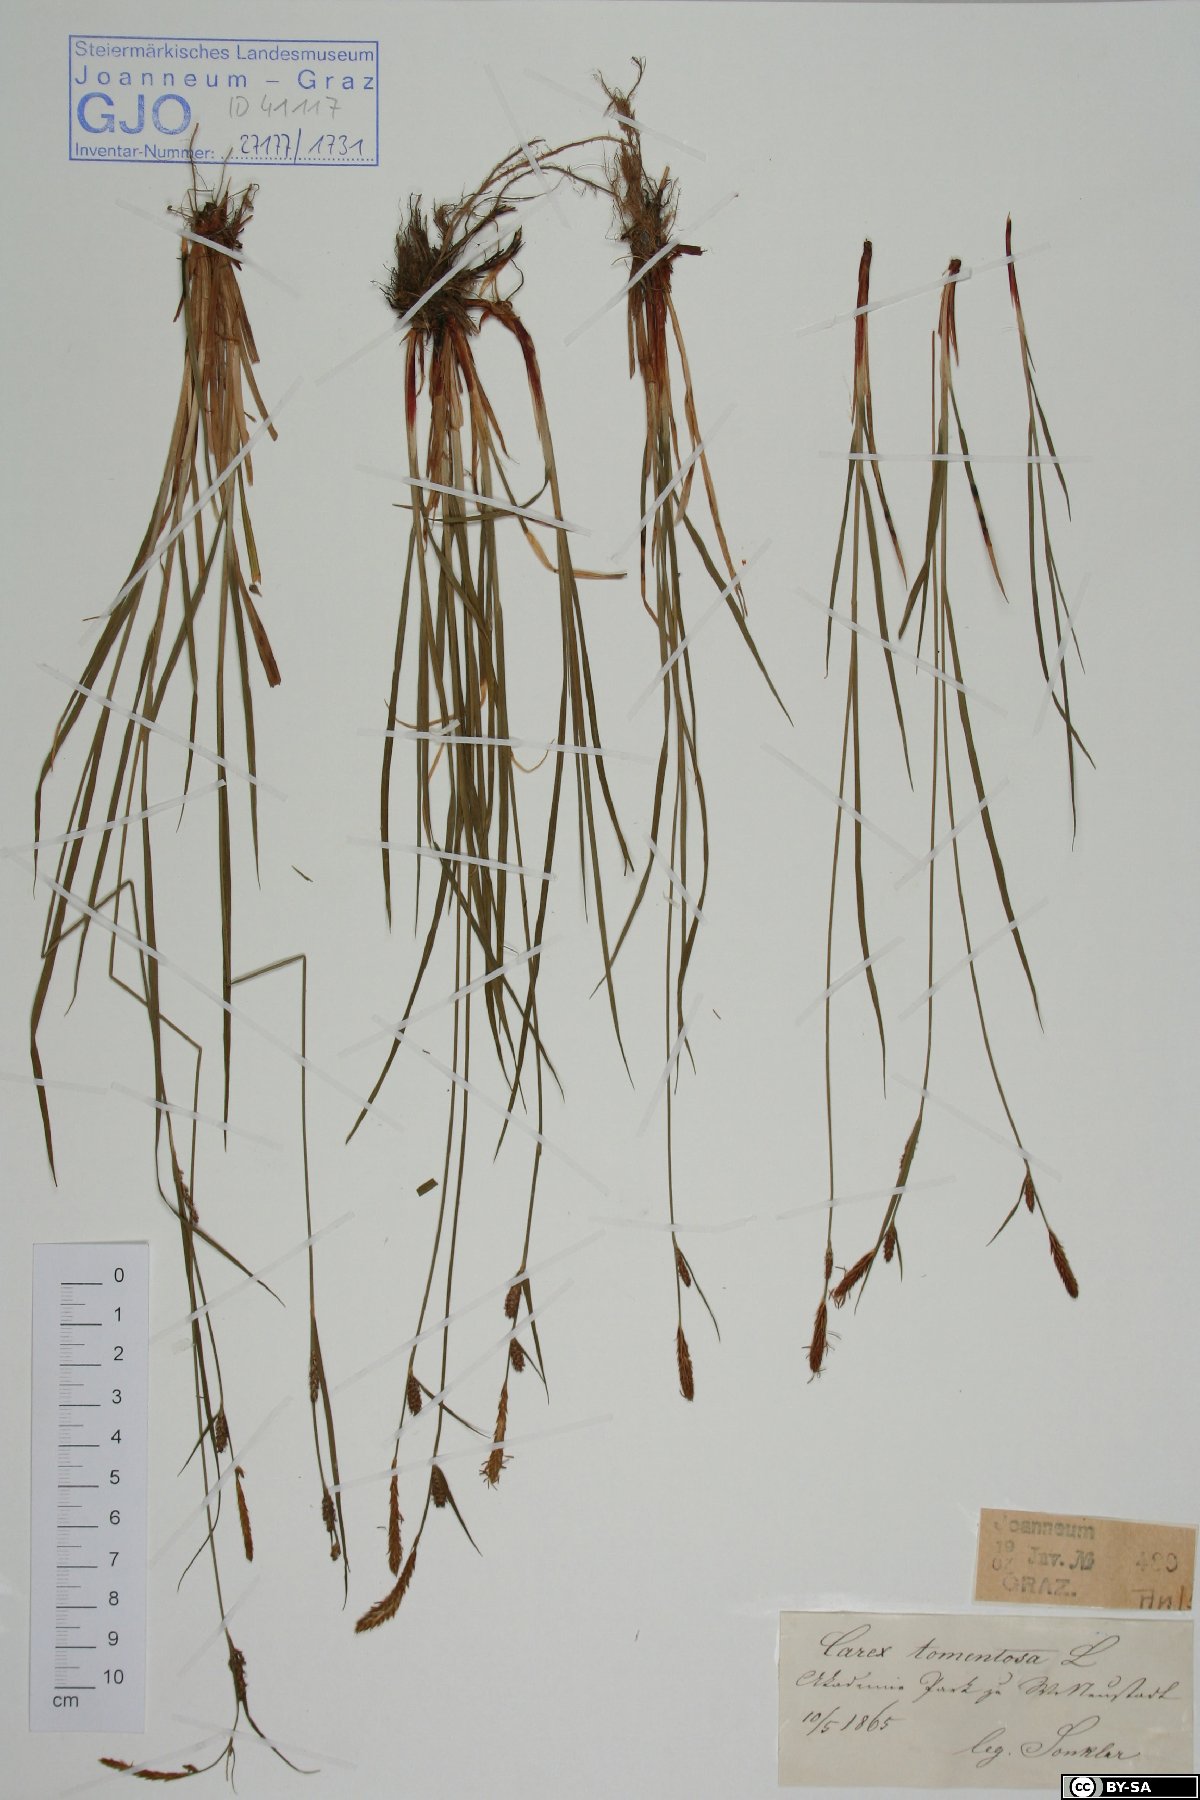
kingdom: Plantae
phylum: Tracheophyta
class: Liliopsida
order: Poales
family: Cyperaceae
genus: Carex
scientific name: Carex tomentosa
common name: Downy-fruited sedge
